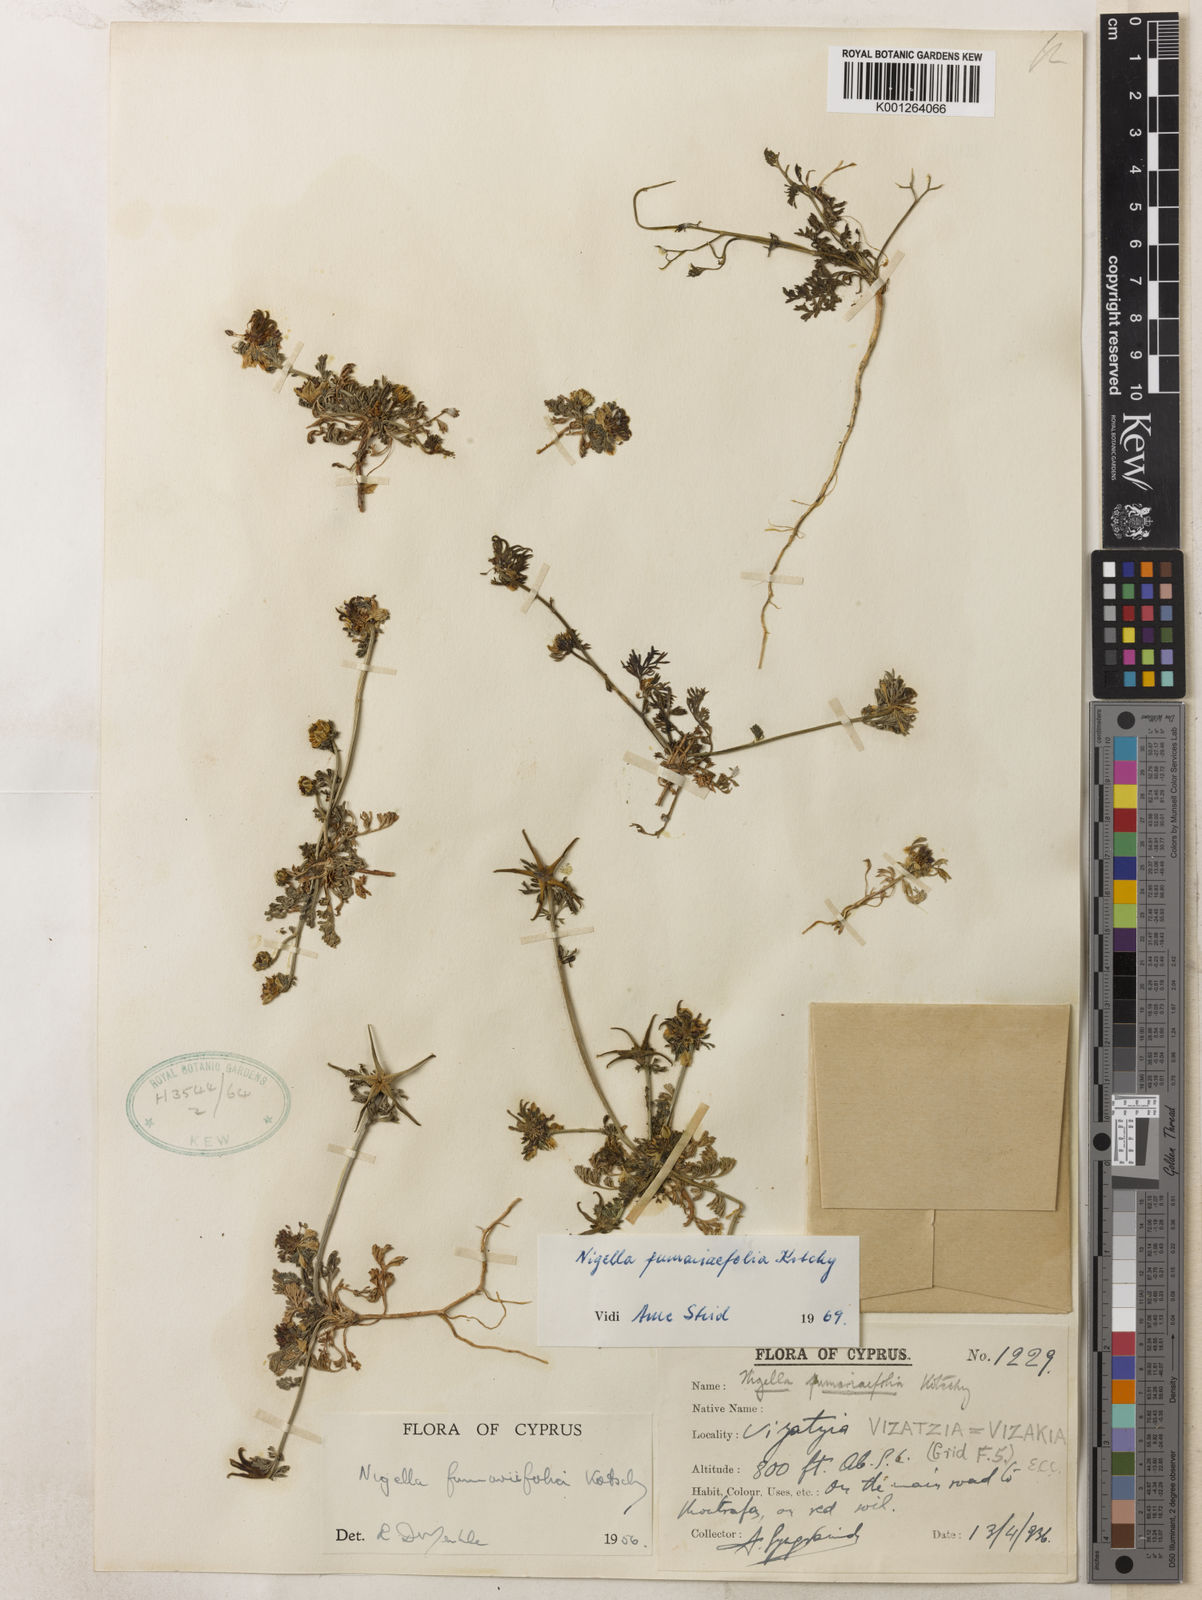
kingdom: Plantae
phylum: Tracheophyta
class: Magnoliopsida
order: Ranunculales
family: Ranunculaceae
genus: Nigella
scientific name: Nigella
